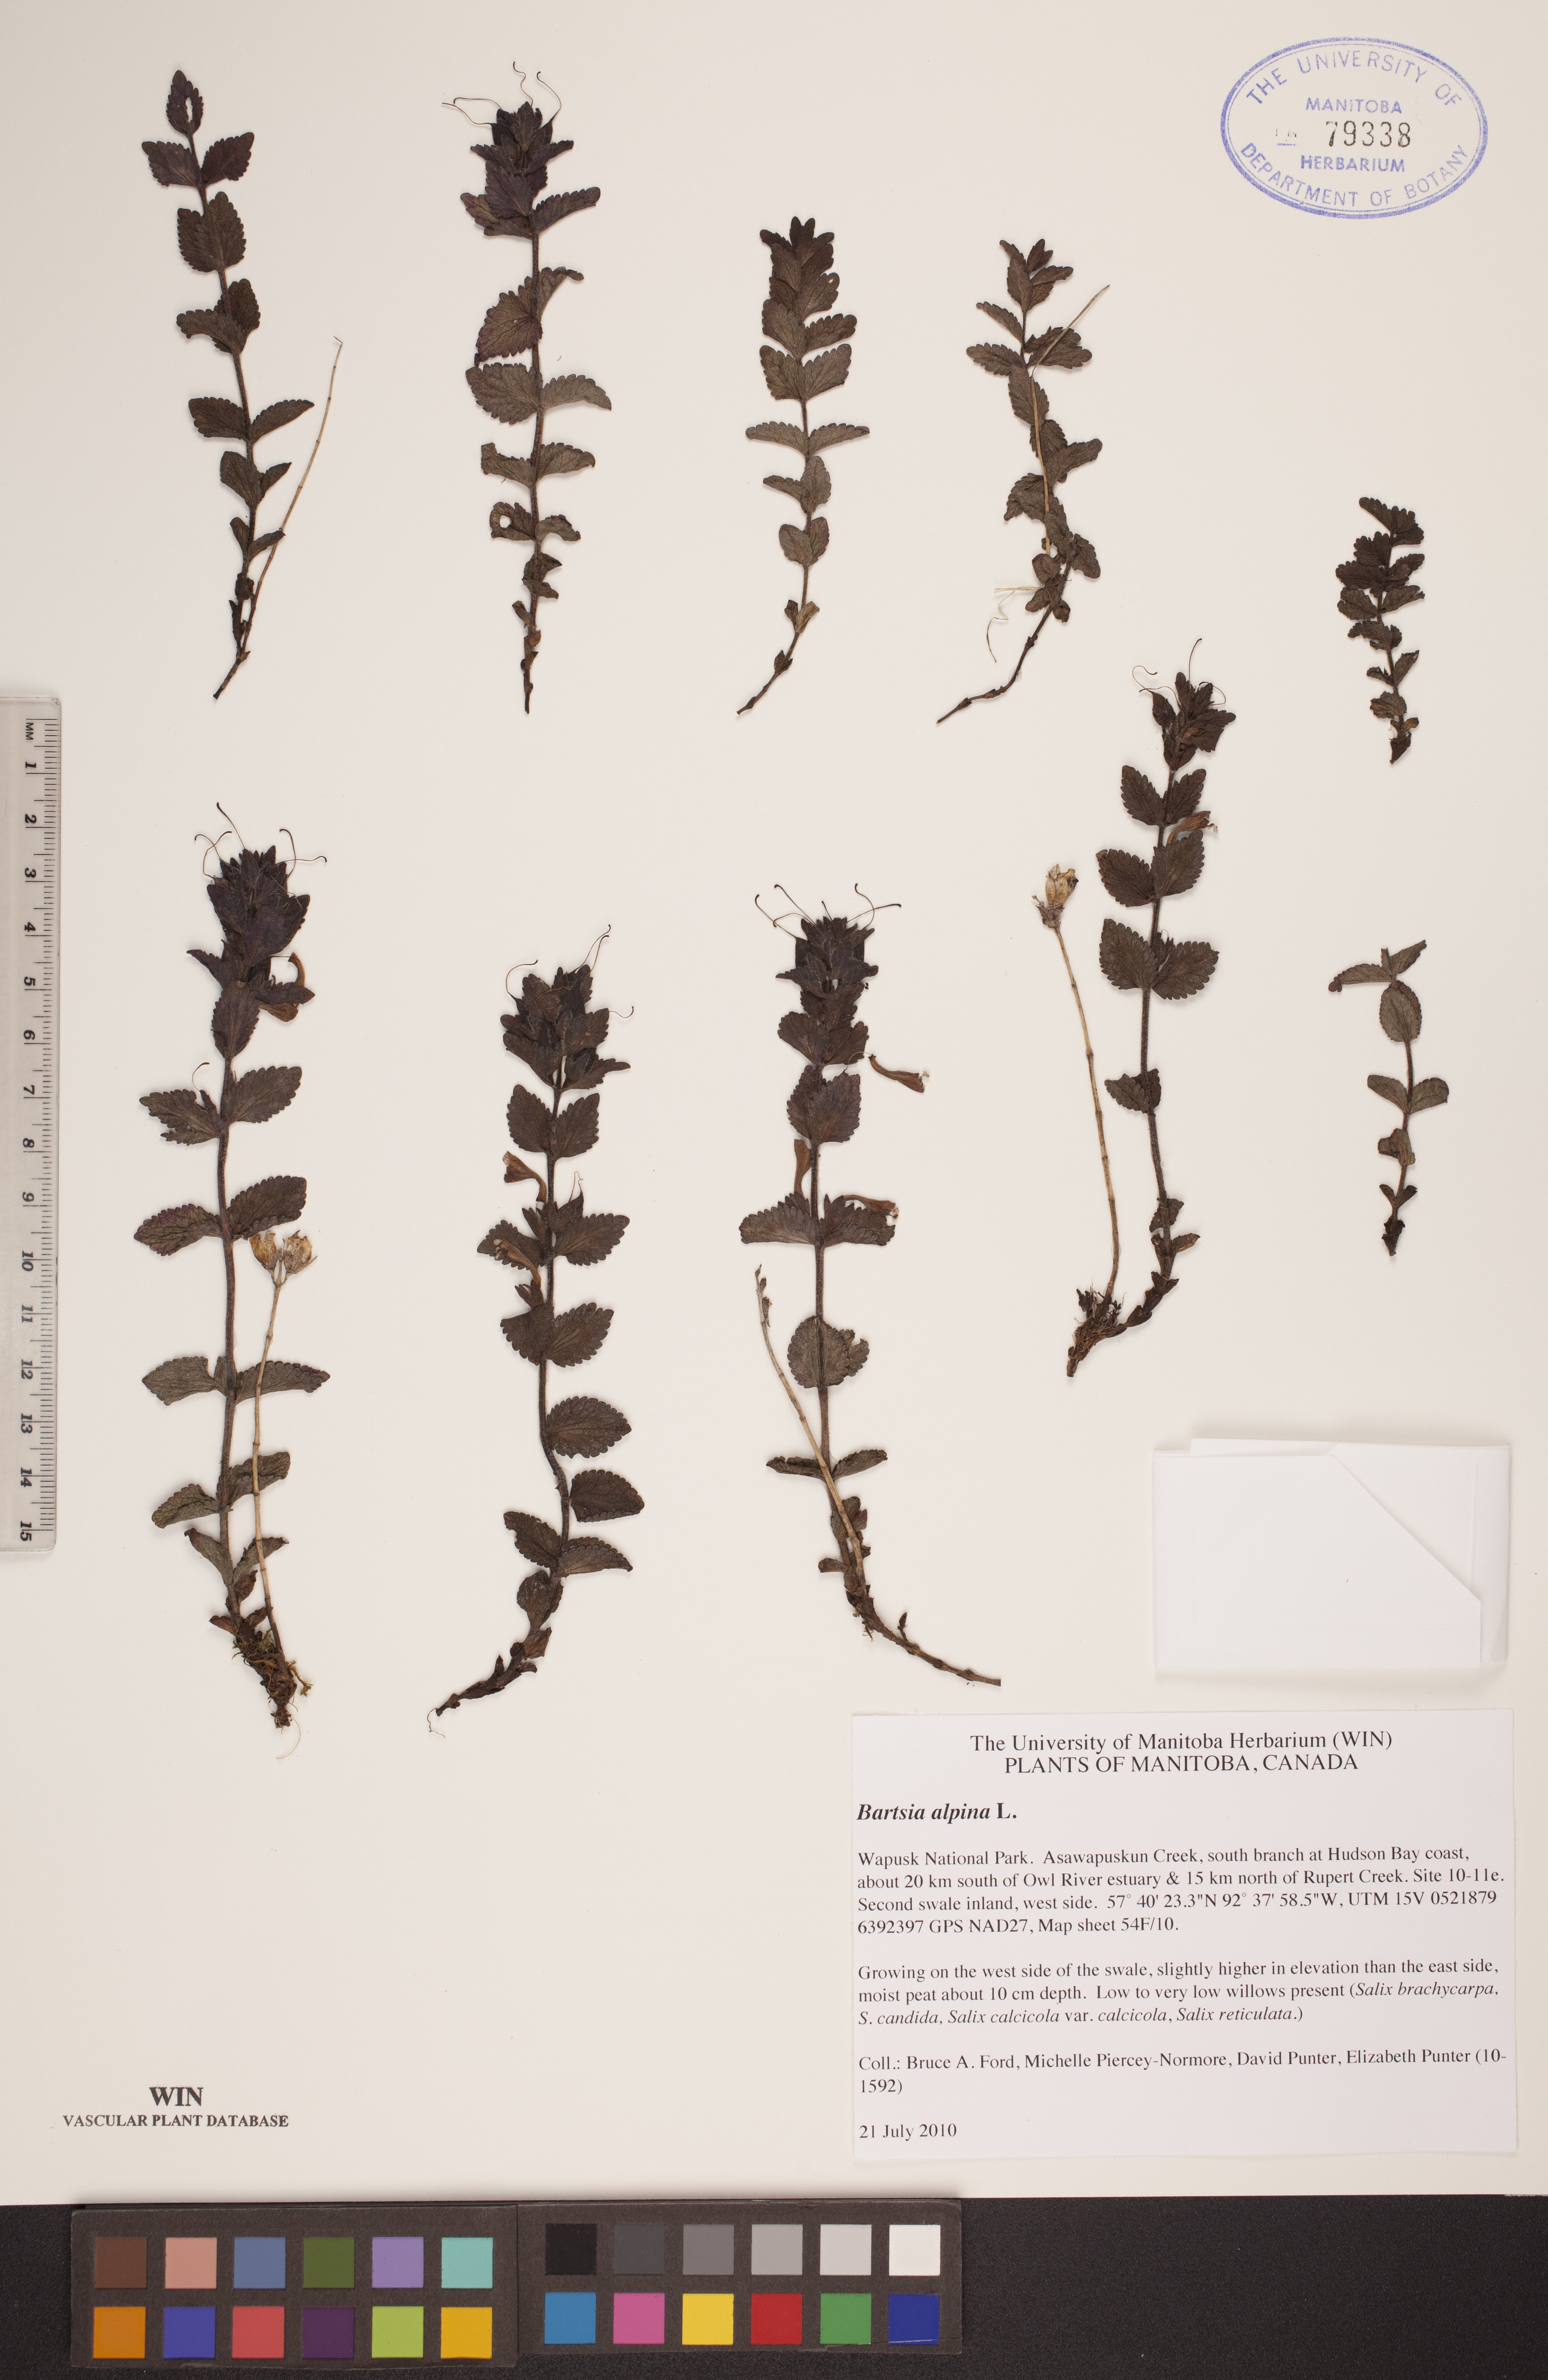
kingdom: Plantae
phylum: Tracheophyta
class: Magnoliopsida
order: Lamiales
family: Orobanchaceae
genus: Bartsia
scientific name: Bartsia alpina
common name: Alpine bartsia
